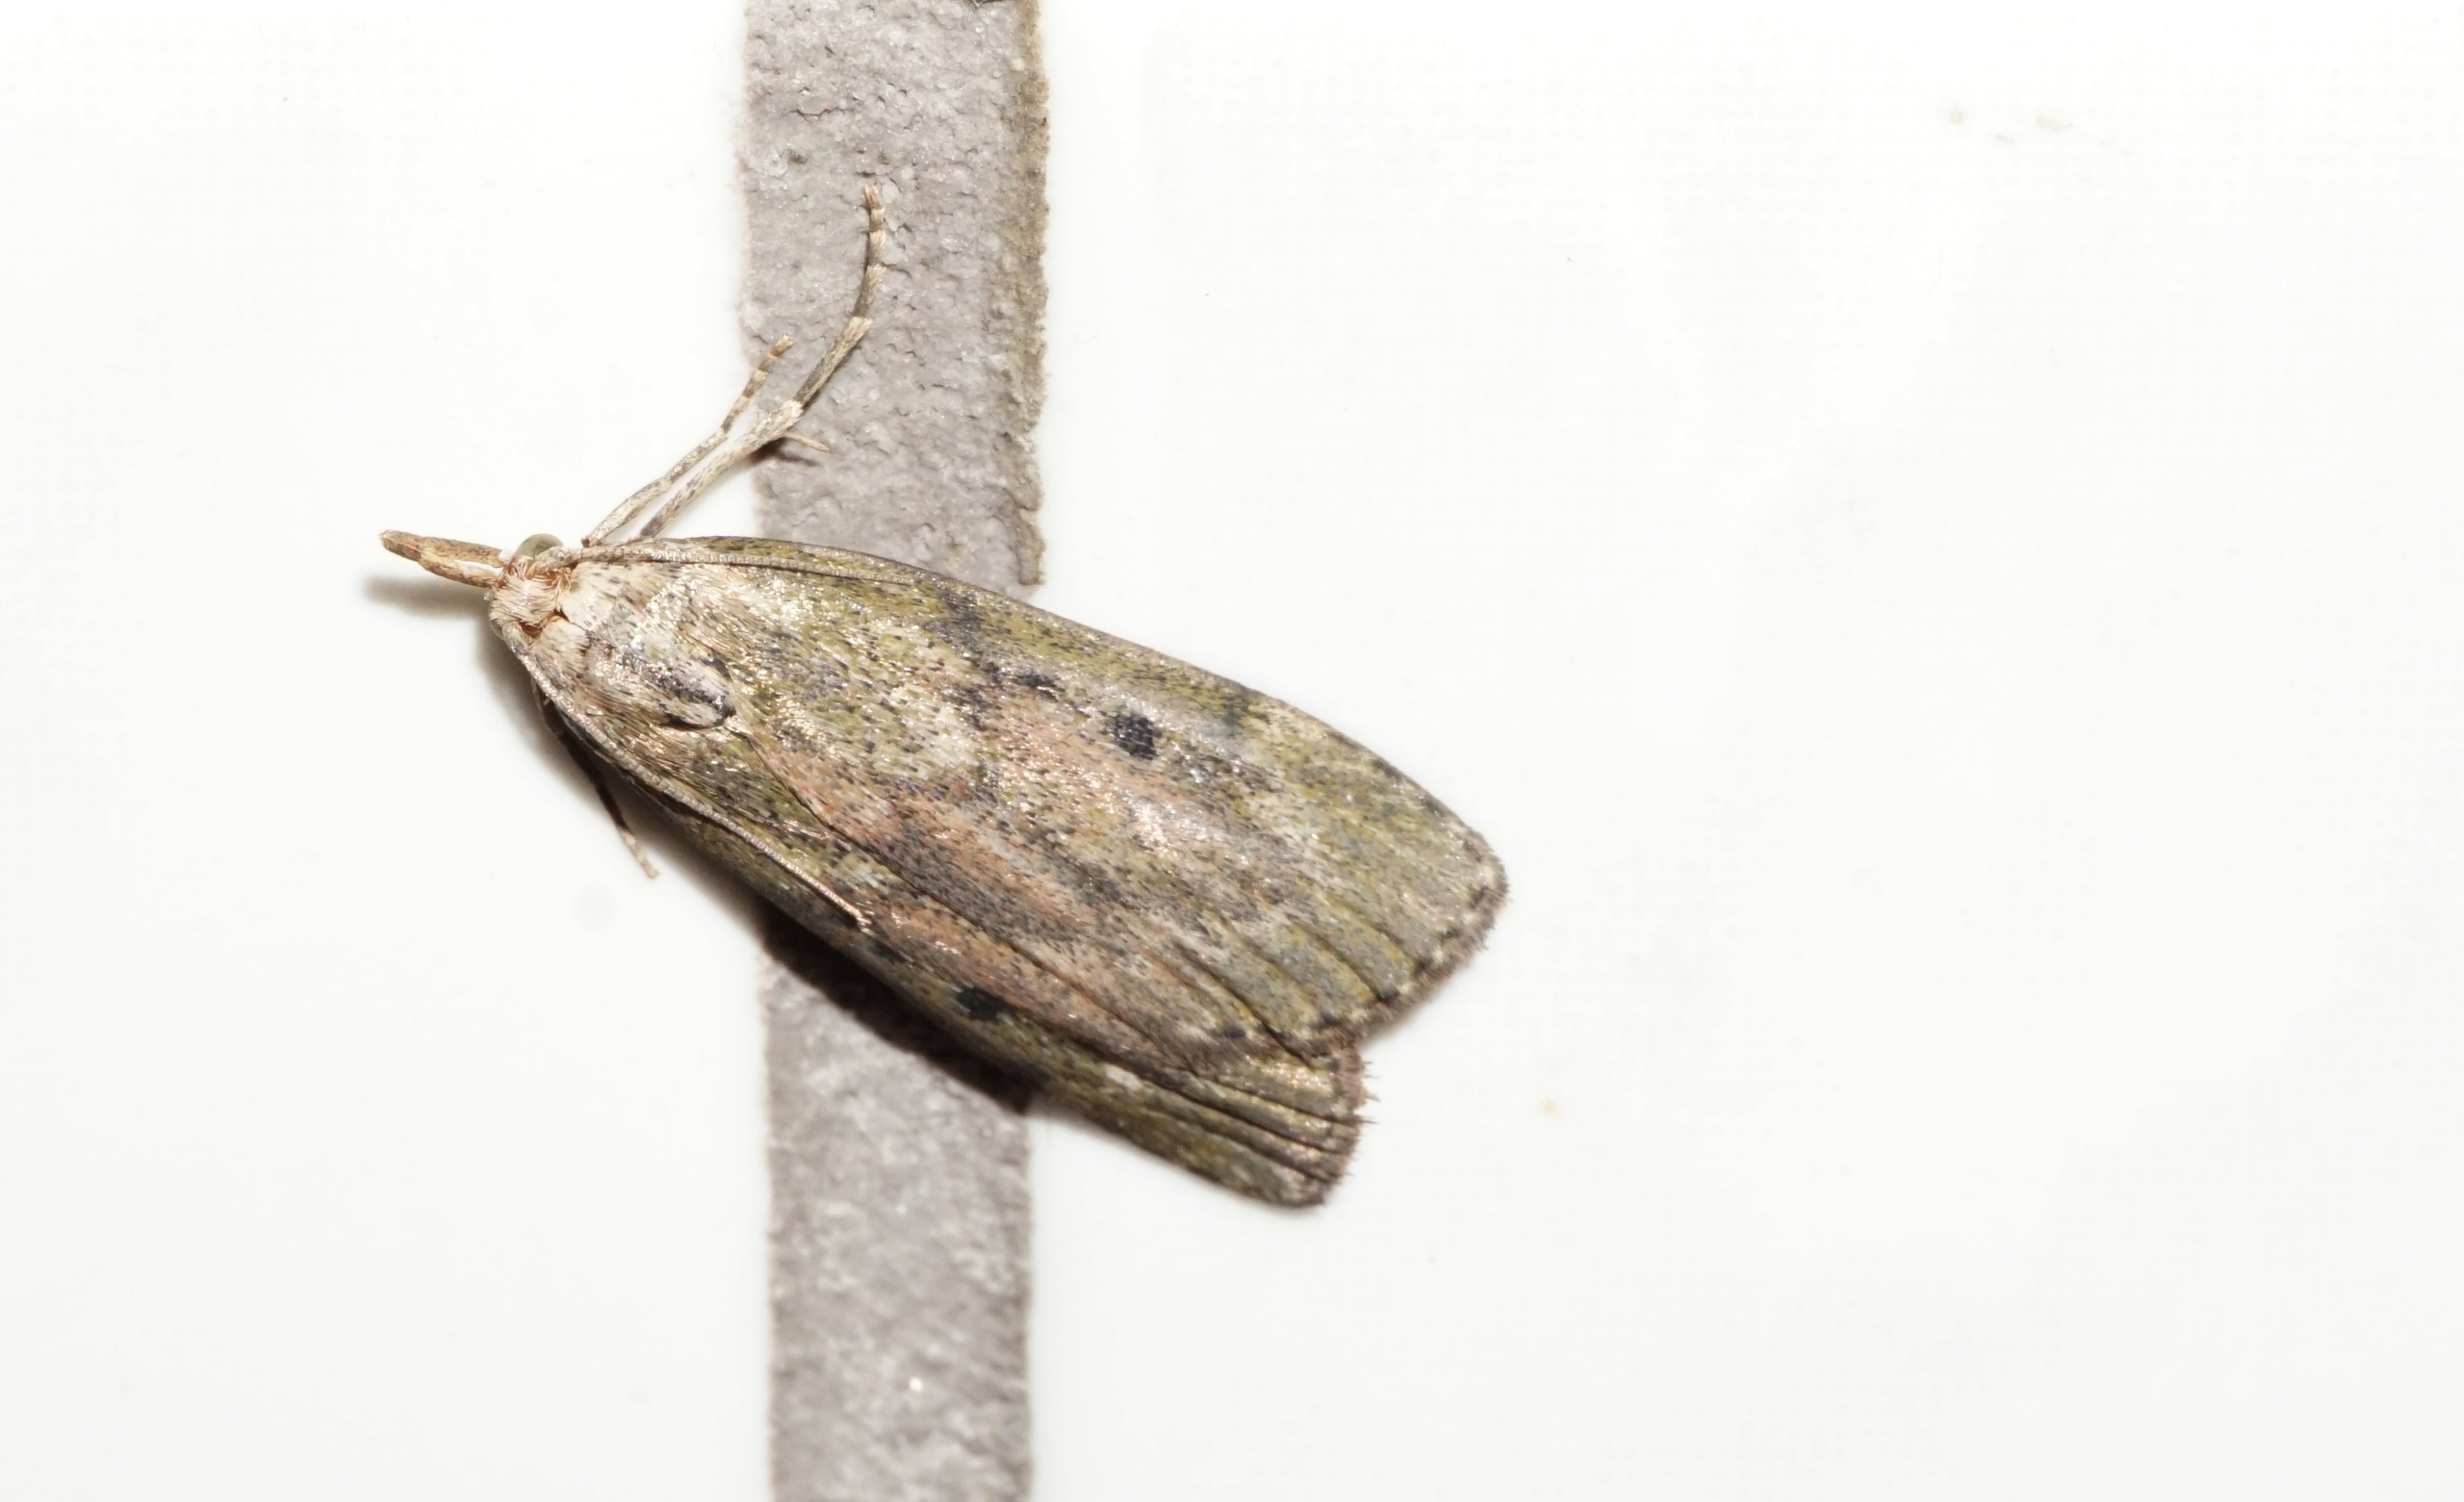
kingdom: Animalia
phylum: Arthropoda
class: Insecta
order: Lepidoptera
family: Pyralidae
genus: Aphomia
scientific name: Aphomia sociella
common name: Humlevoksmøl
